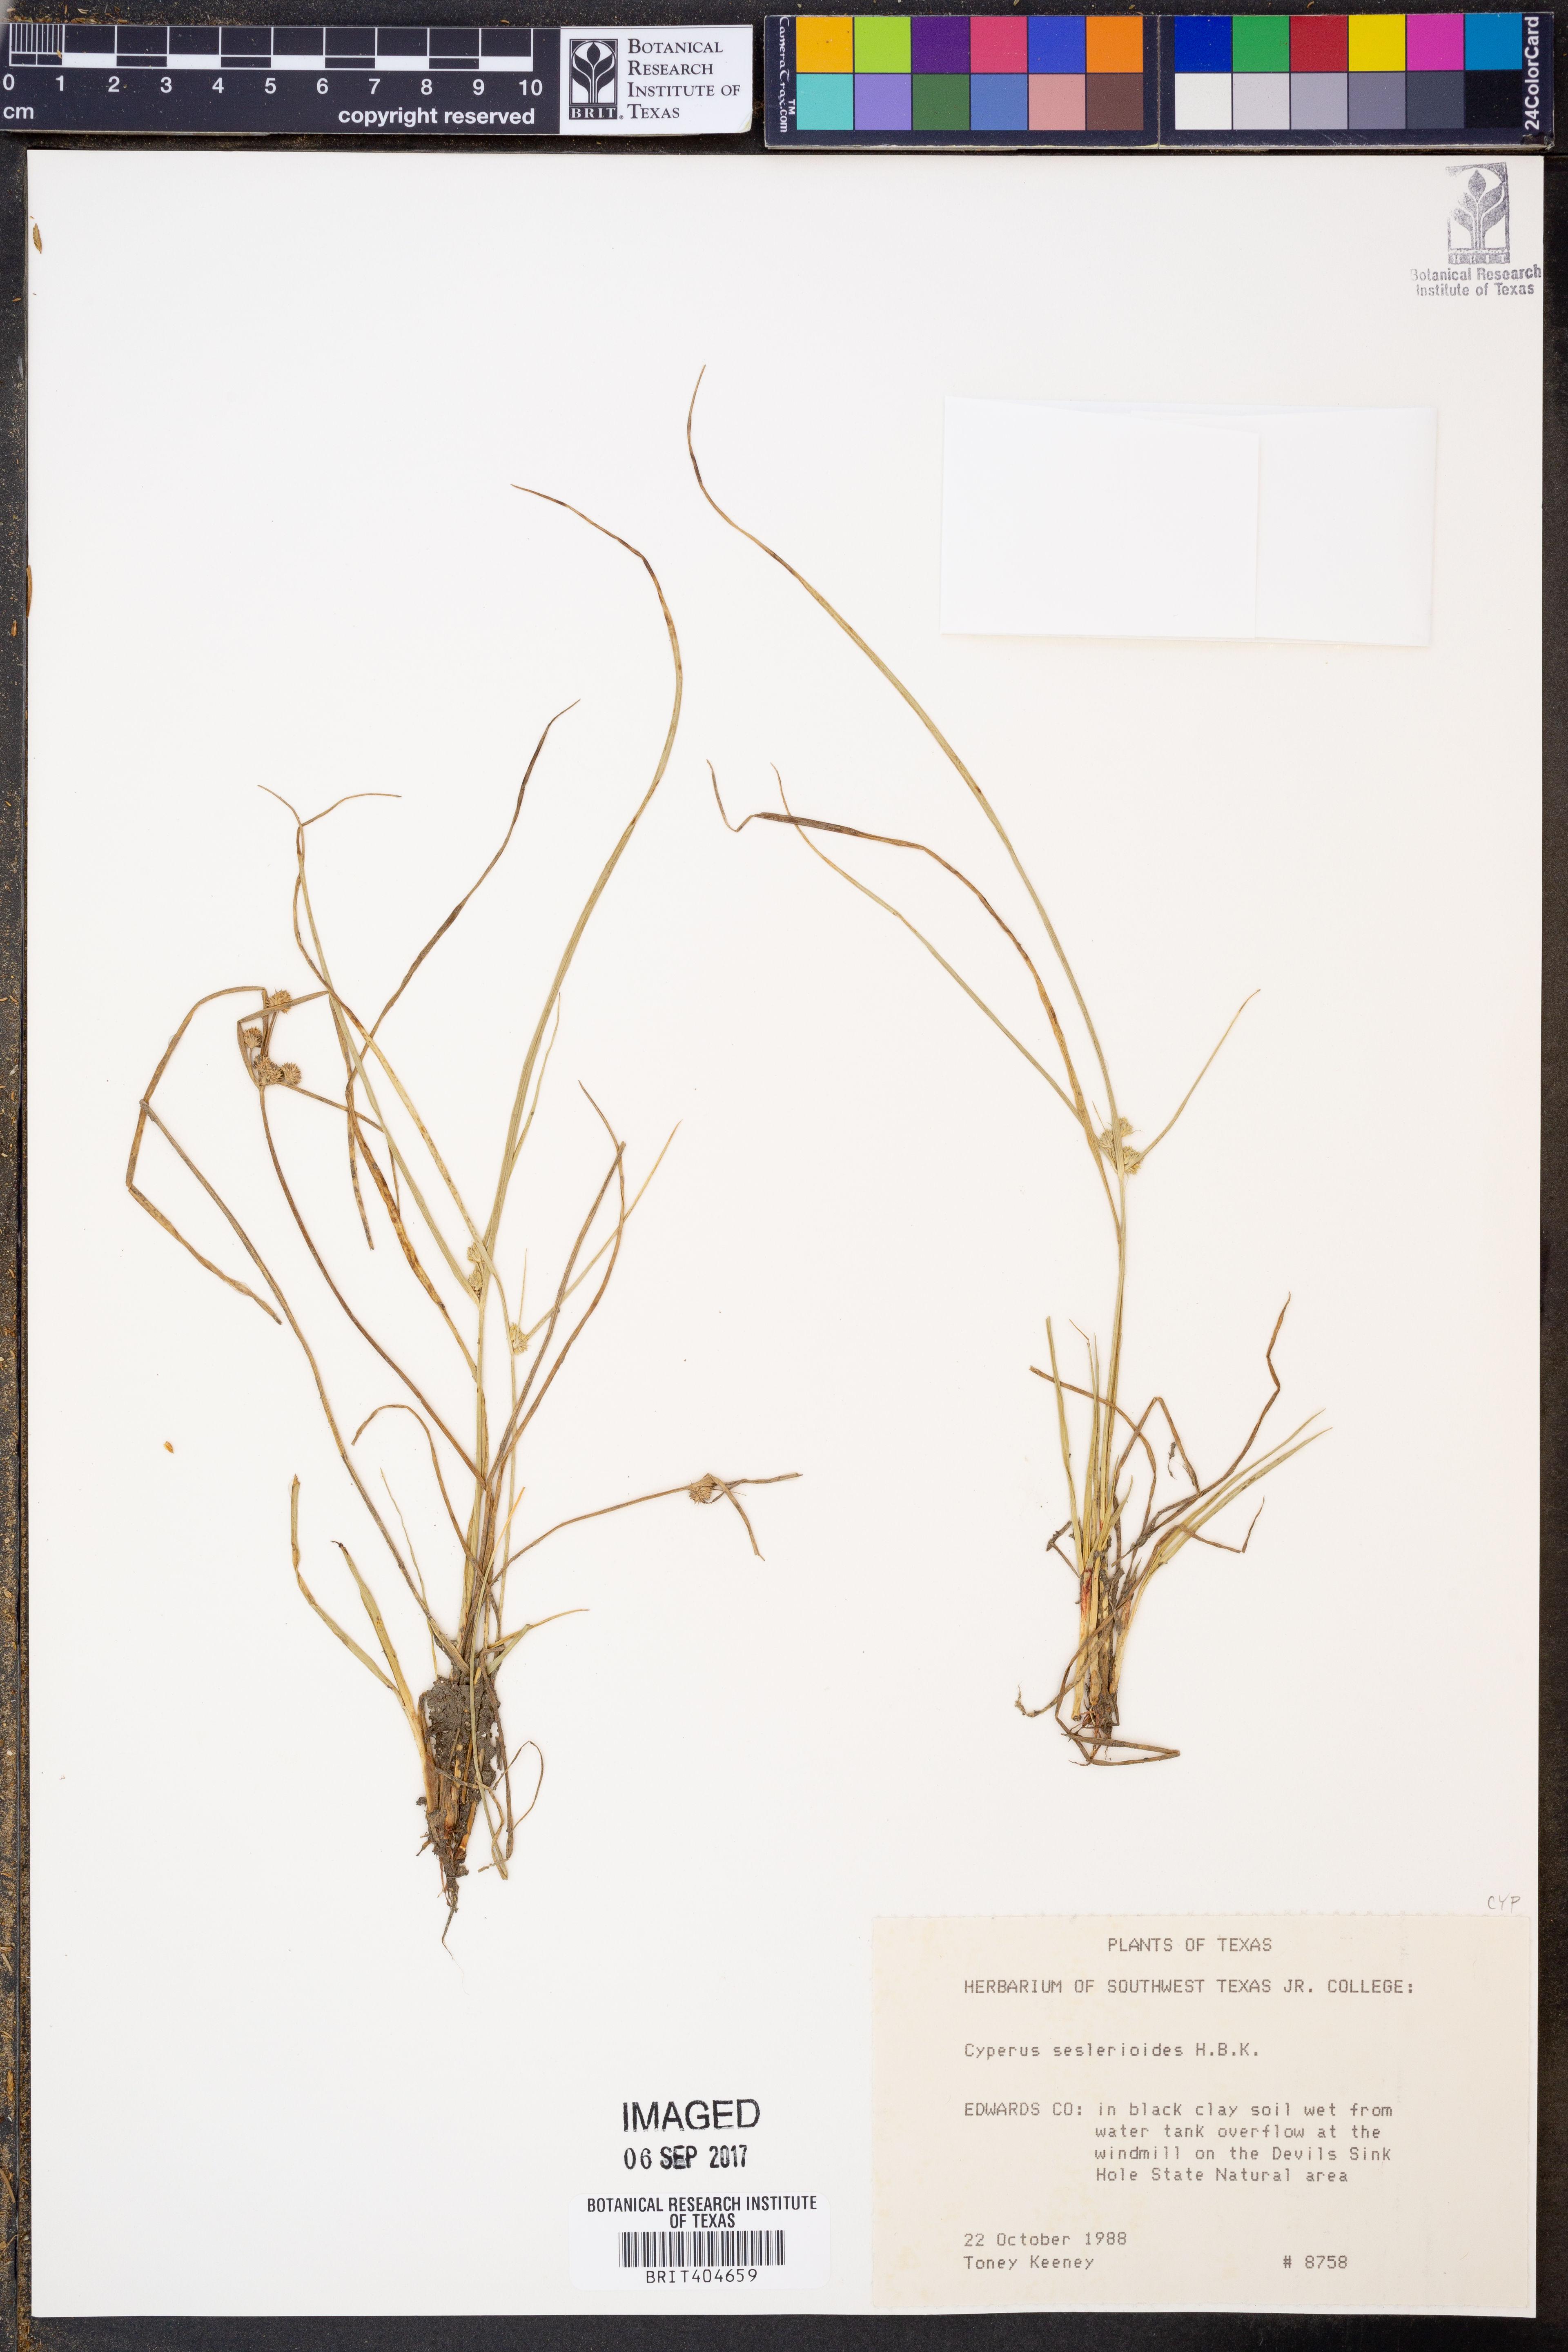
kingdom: Plantae
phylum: Tracheophyta
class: Liliopsida
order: Poales
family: Cyperaceae
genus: Cyperus
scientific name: Cyperus seslerioides
